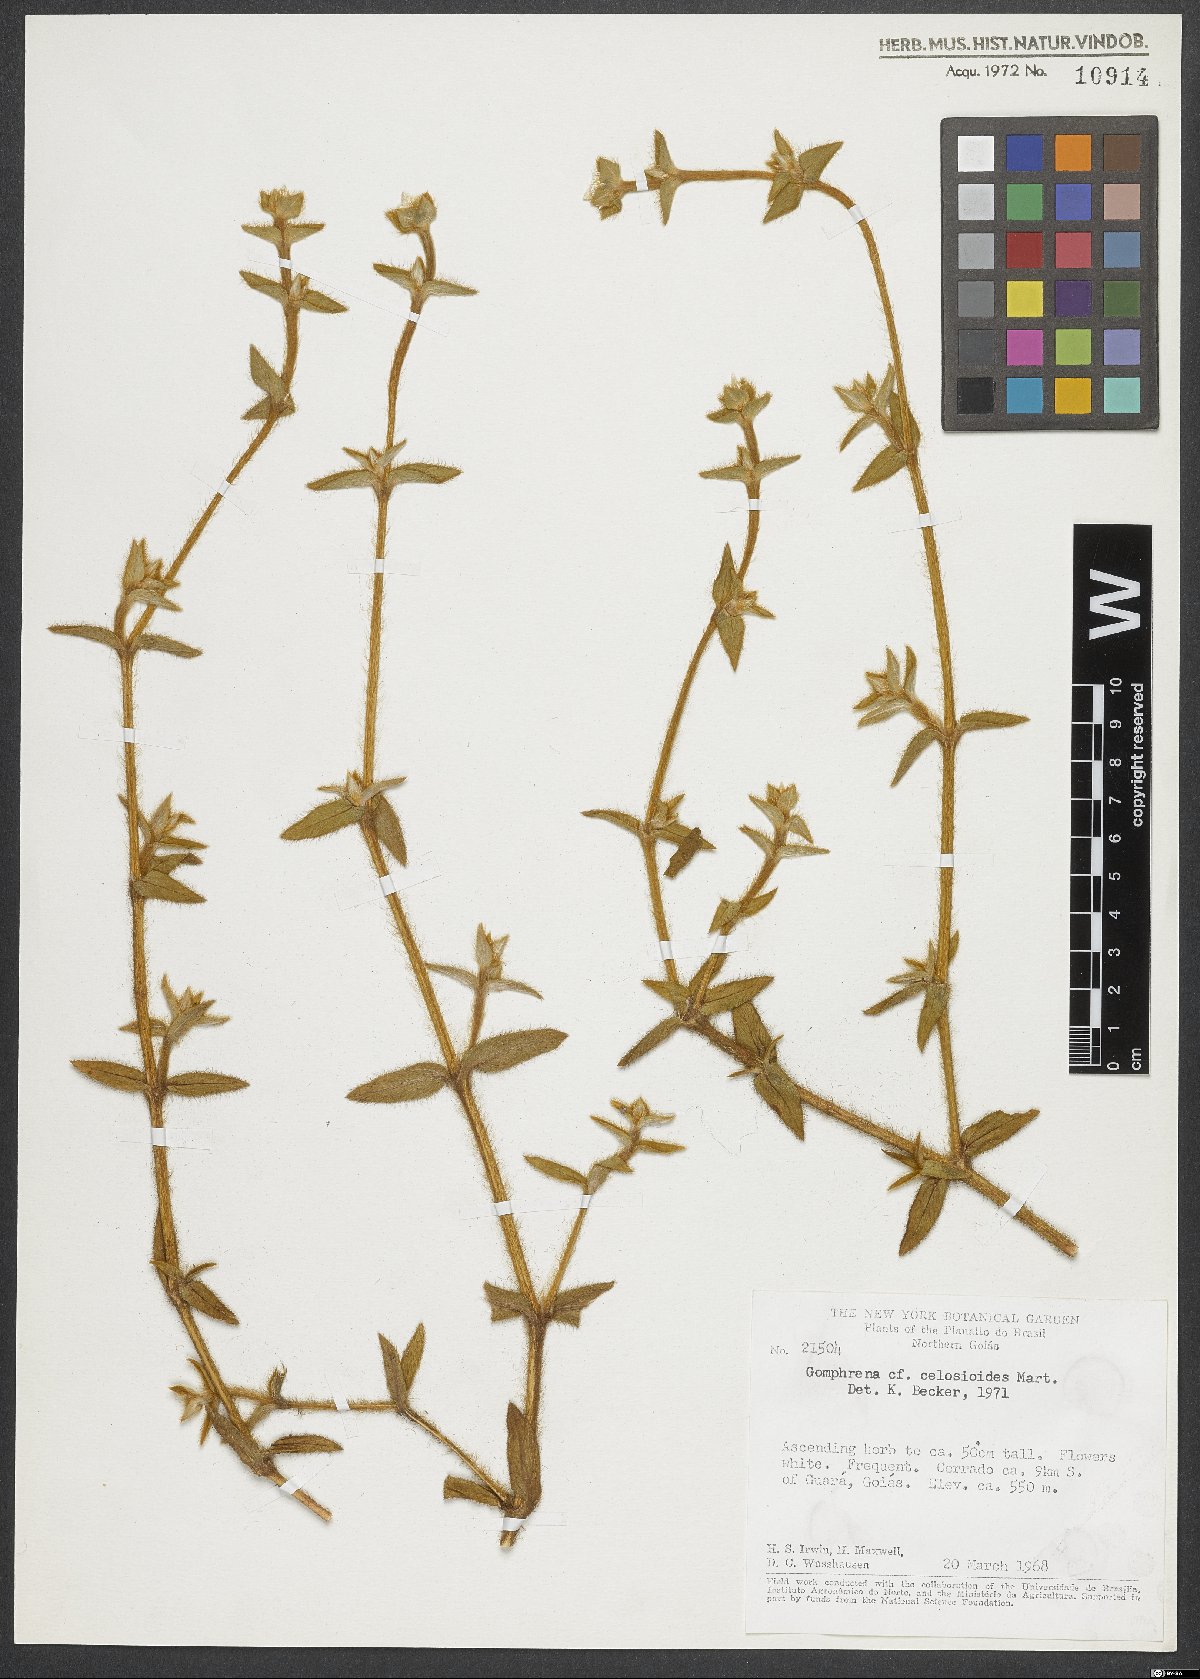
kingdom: Plantae
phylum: Tracheophyta
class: Magnoliopsida
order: Caryophyllales
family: Amaranthaceae
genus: Gomphrena
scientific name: Gomphrena celosioides
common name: Gomphrena-weed
